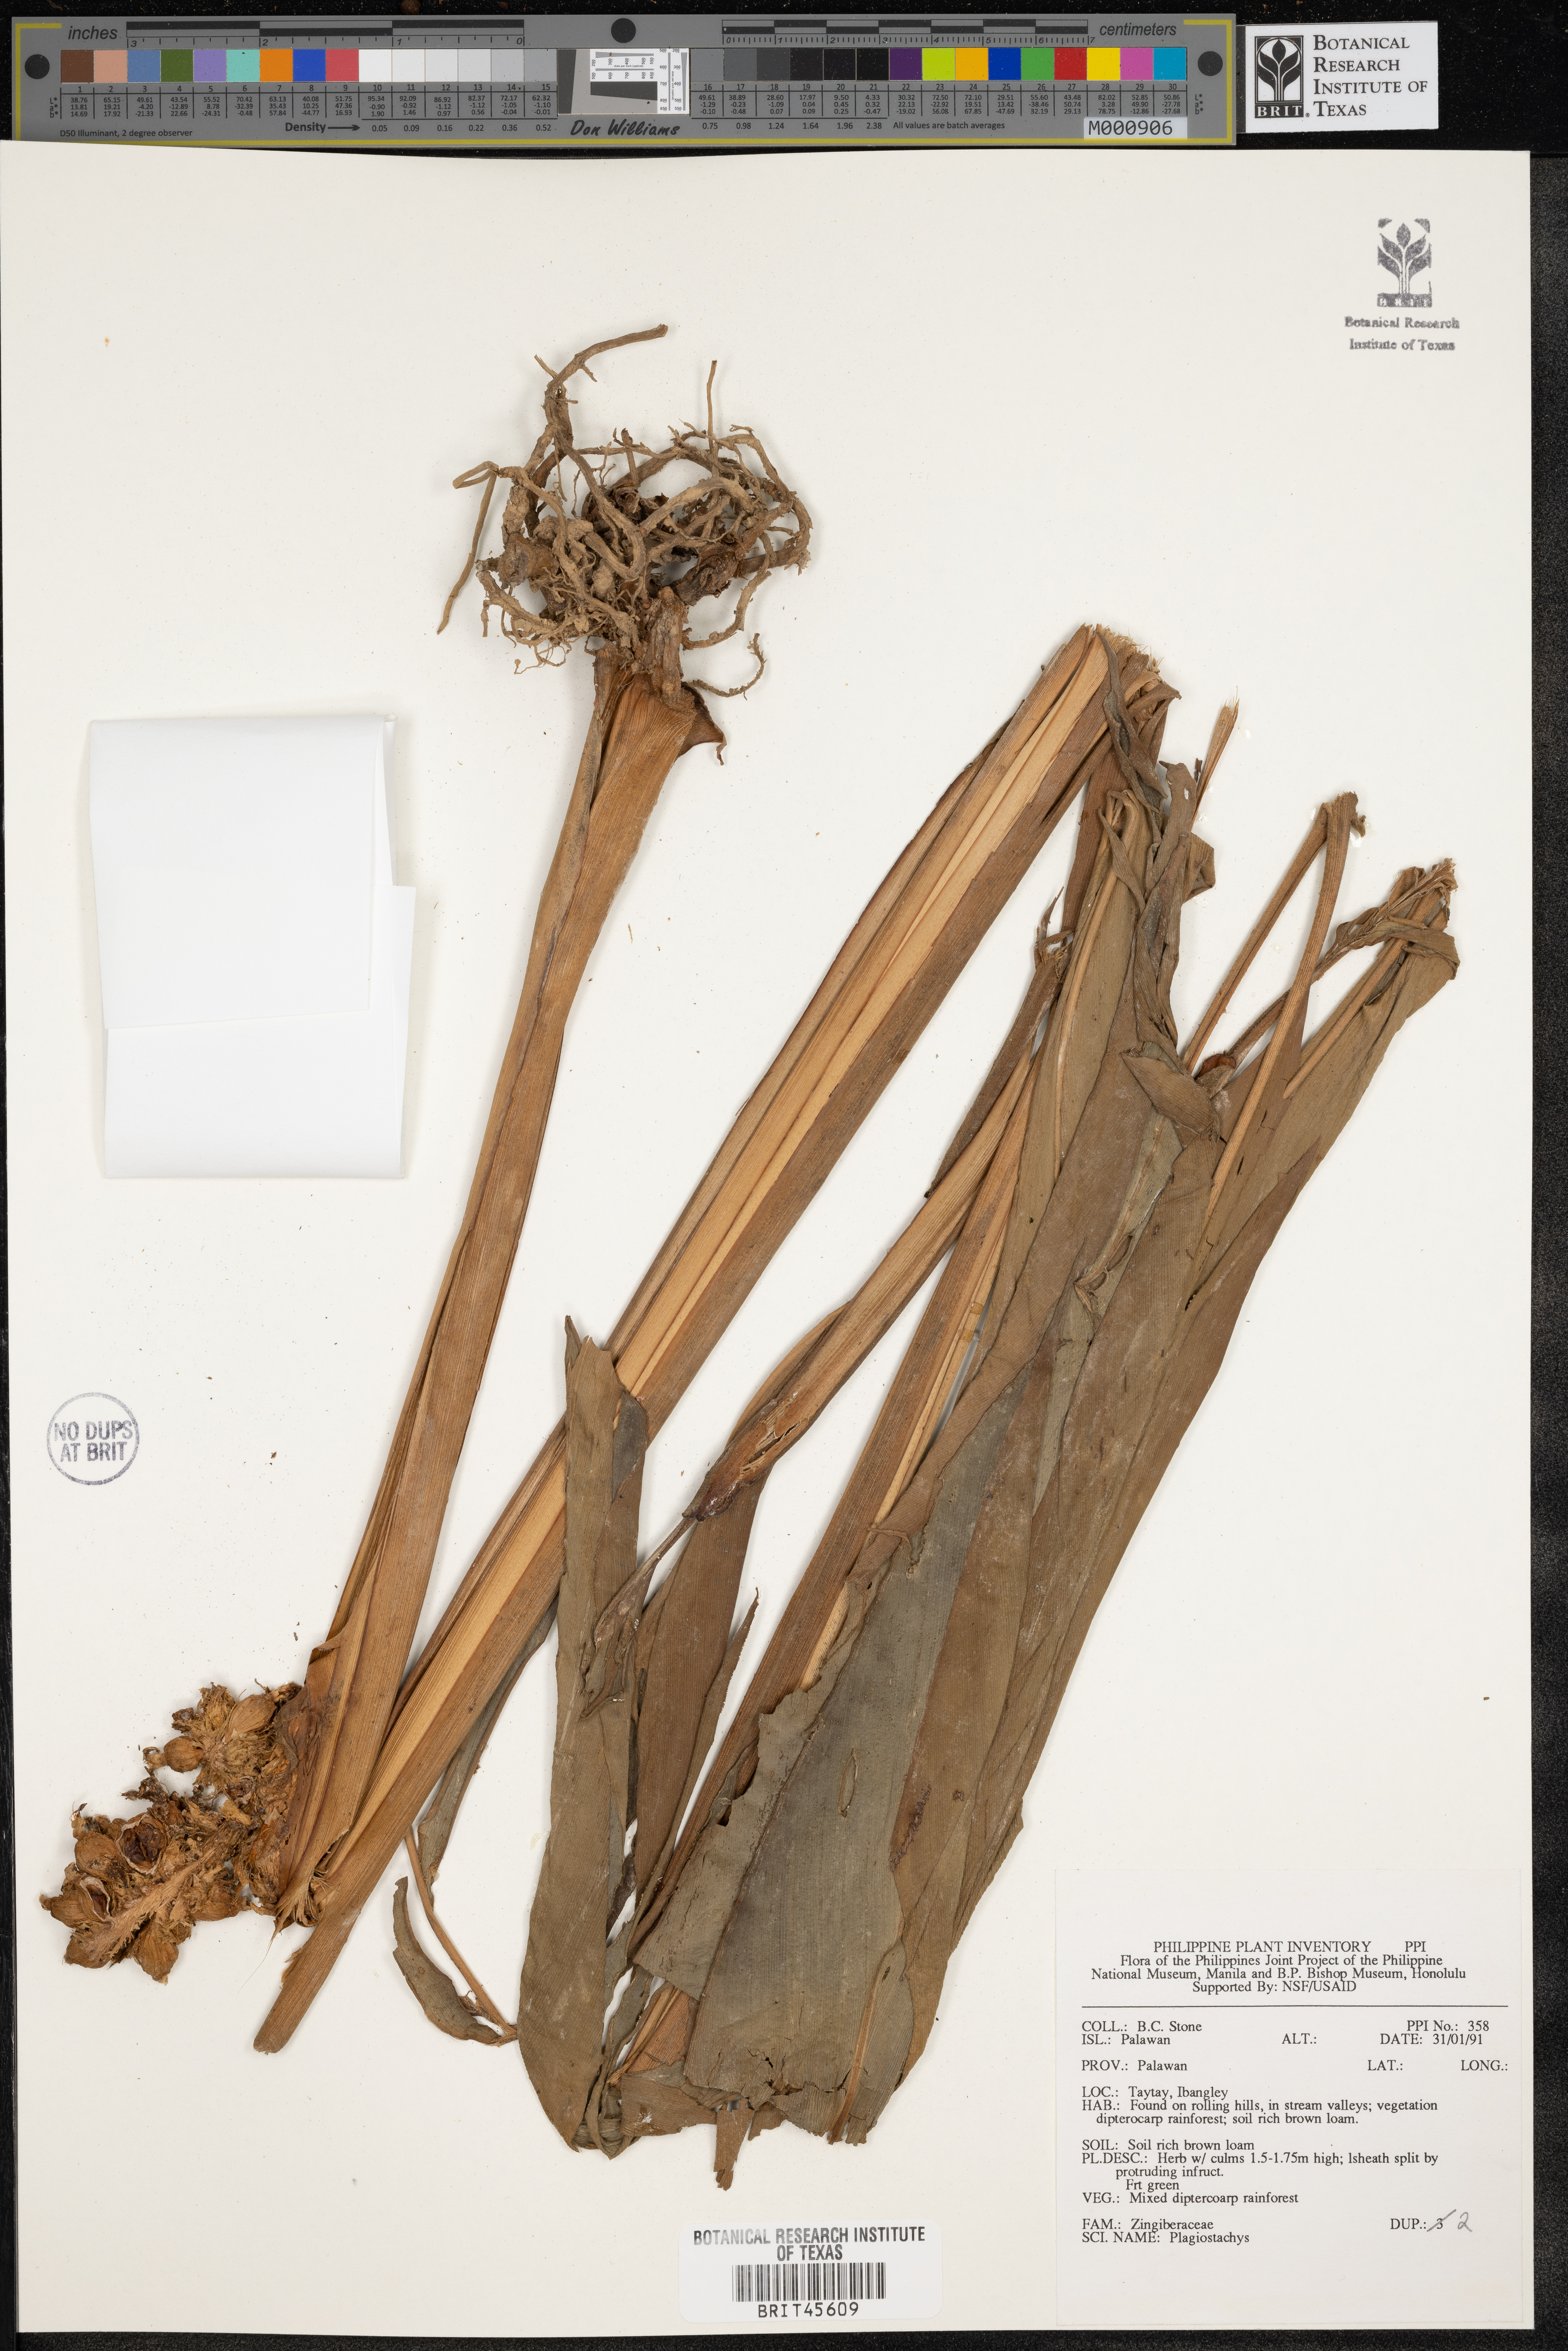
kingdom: Plantae
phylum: Tracheophyta
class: Liliopsida
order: Zingiberales
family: Zingiberaceae
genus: Plagiostachys
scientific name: Plagiostachys
